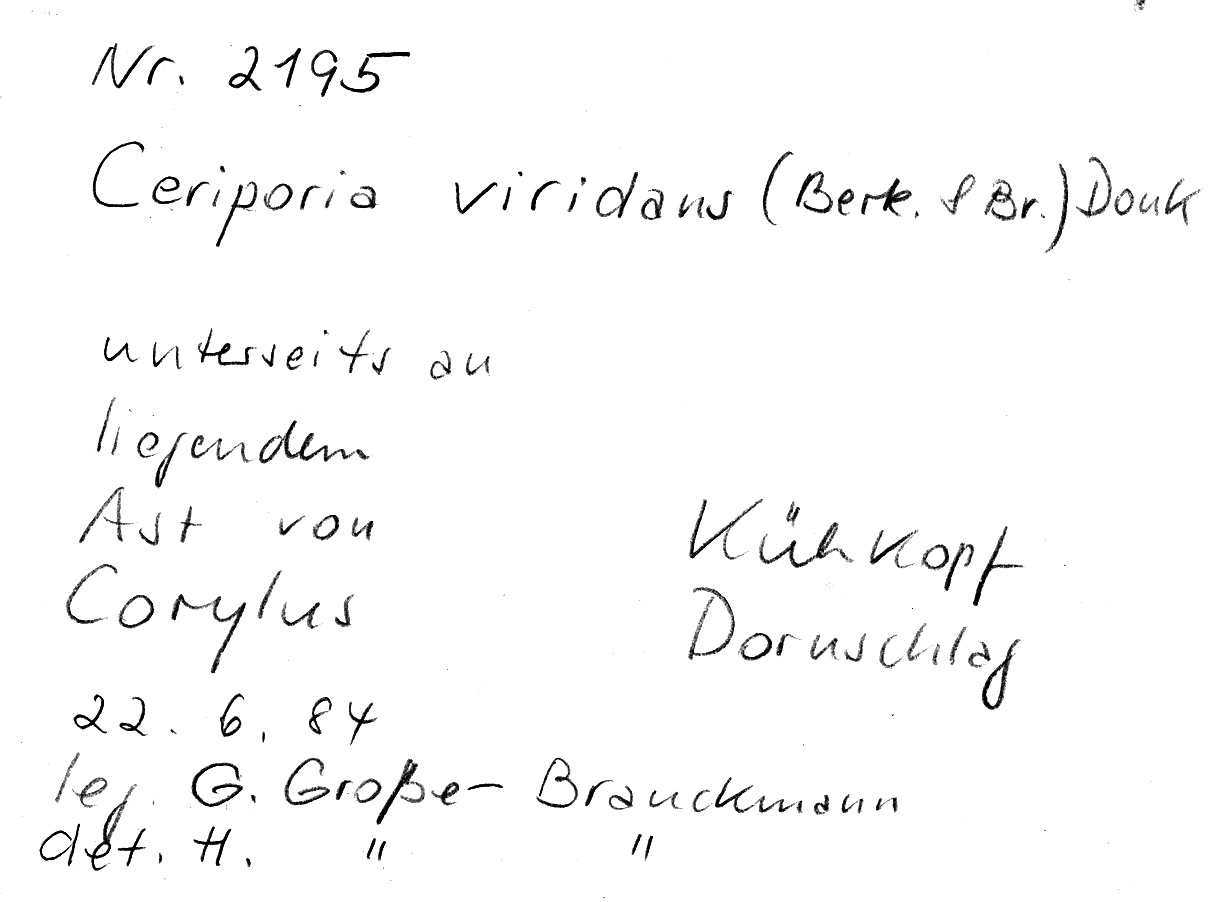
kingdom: Fungi
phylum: Basidiomycota
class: Agaricomycetes
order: Polyporales
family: Irpicaceae
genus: Ceriporia
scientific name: Ceriporia viridans
